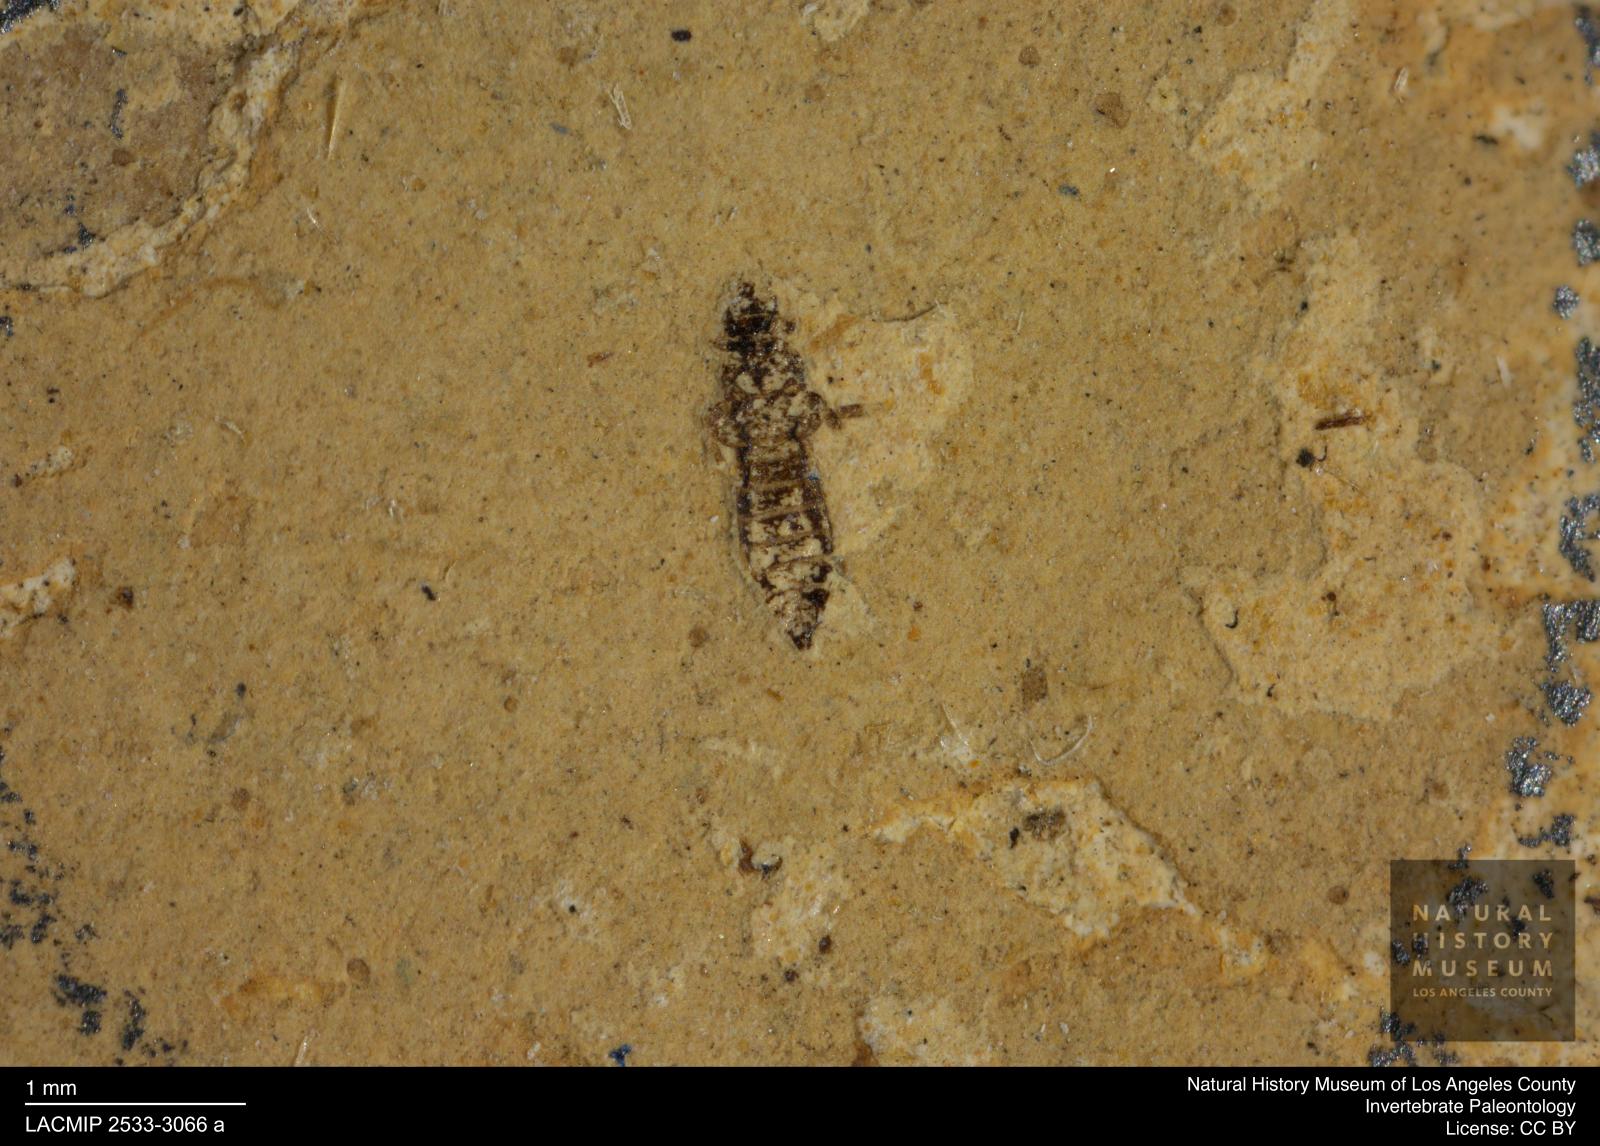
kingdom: Animalia
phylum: Arthropoda
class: Insecta
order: Thysanoptera
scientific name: Thysanoptera
